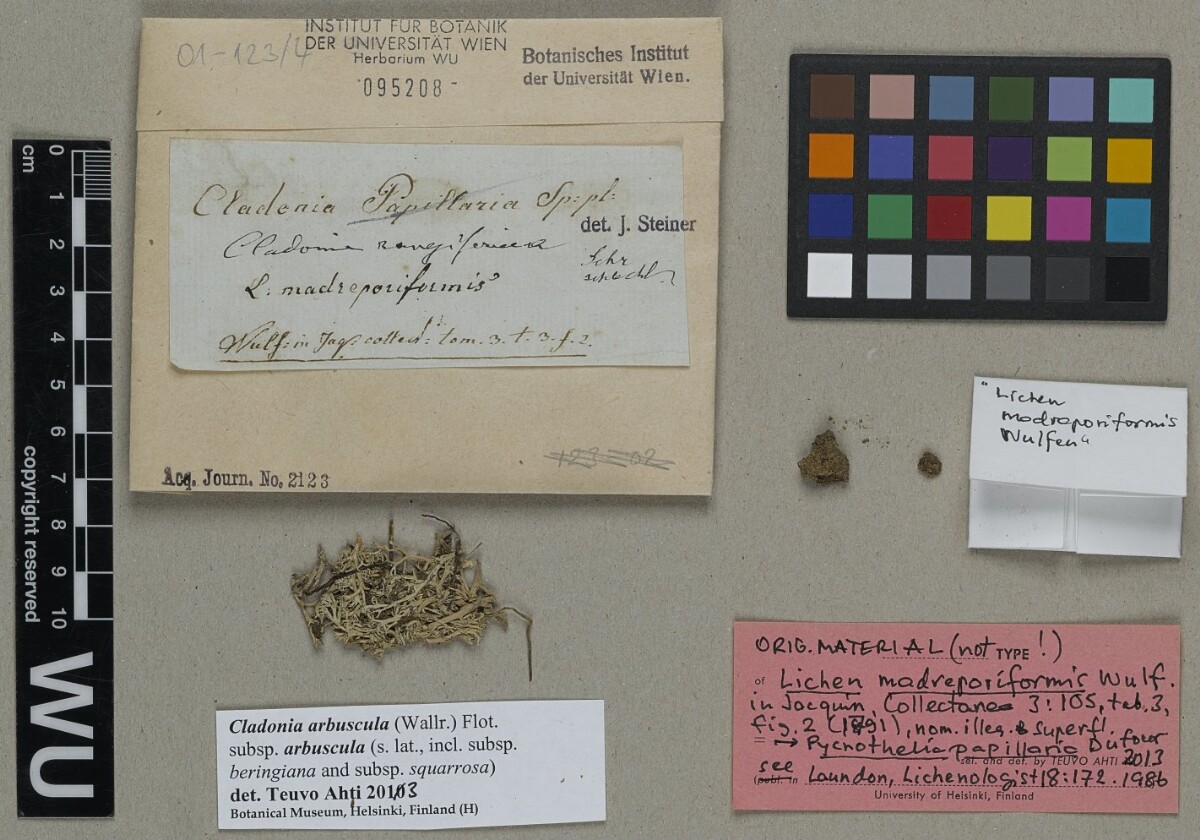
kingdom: Fungi
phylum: Ascomycota
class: Lecanoromycetes
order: Lecanorales
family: Cladoniaceae
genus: Pycnothelia
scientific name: Pycnothelia papillaria
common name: Nipple lichen
